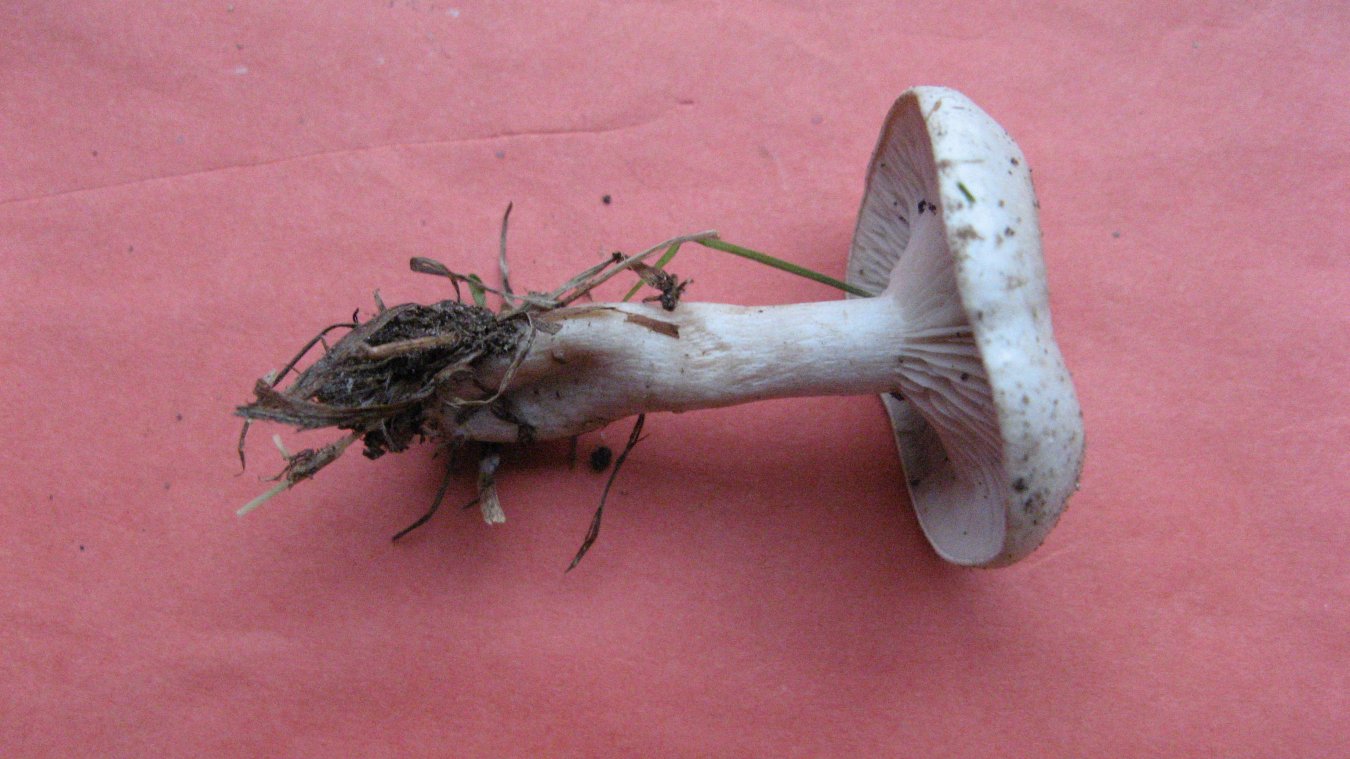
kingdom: Fungi
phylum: Basidiomycota
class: Agaricomycetes
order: Agaricales
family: Tricholomataceae
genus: Clitocybe
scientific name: Clitocybe rivulosa
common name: eng-tragthat
